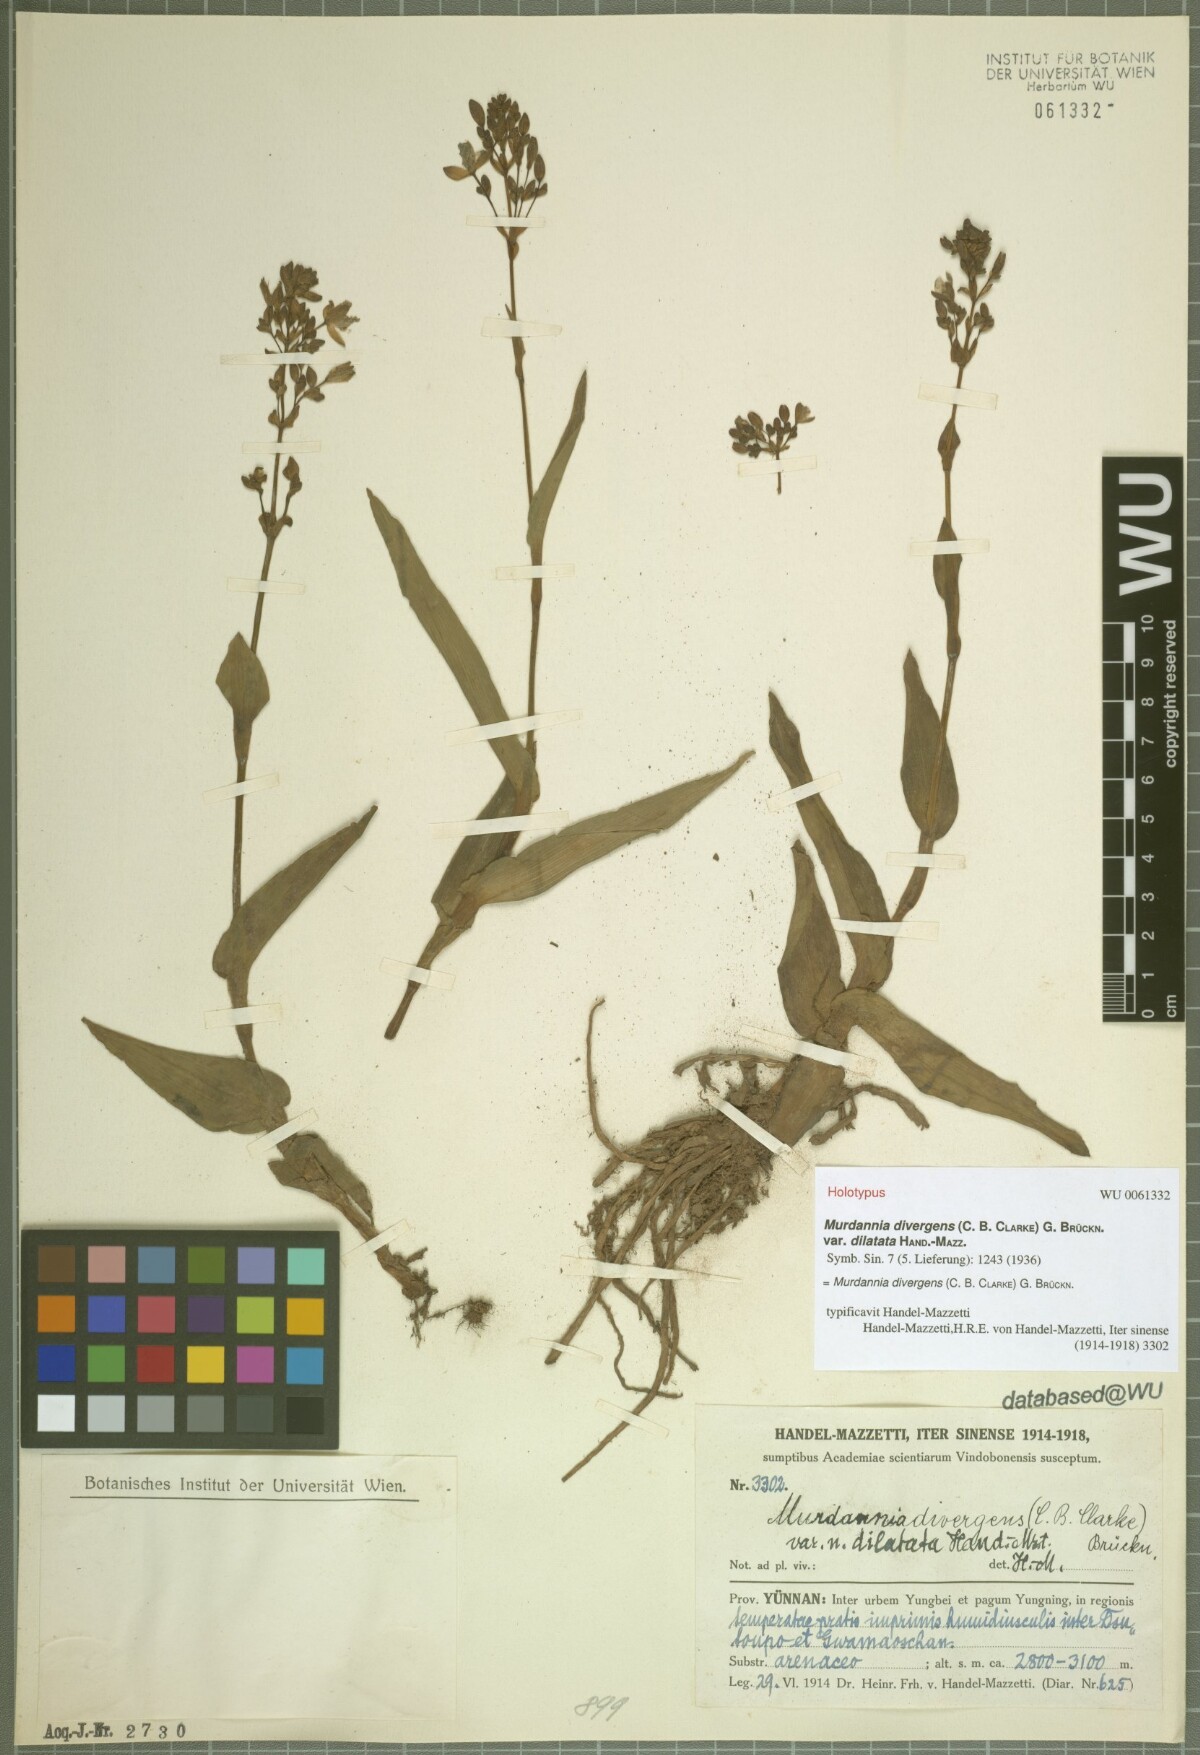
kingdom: Plantae
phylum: Tracheophyta
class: Liliopsida
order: Commelinales
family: Commelinaceae
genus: Murdannia
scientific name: Murdannia divergens
